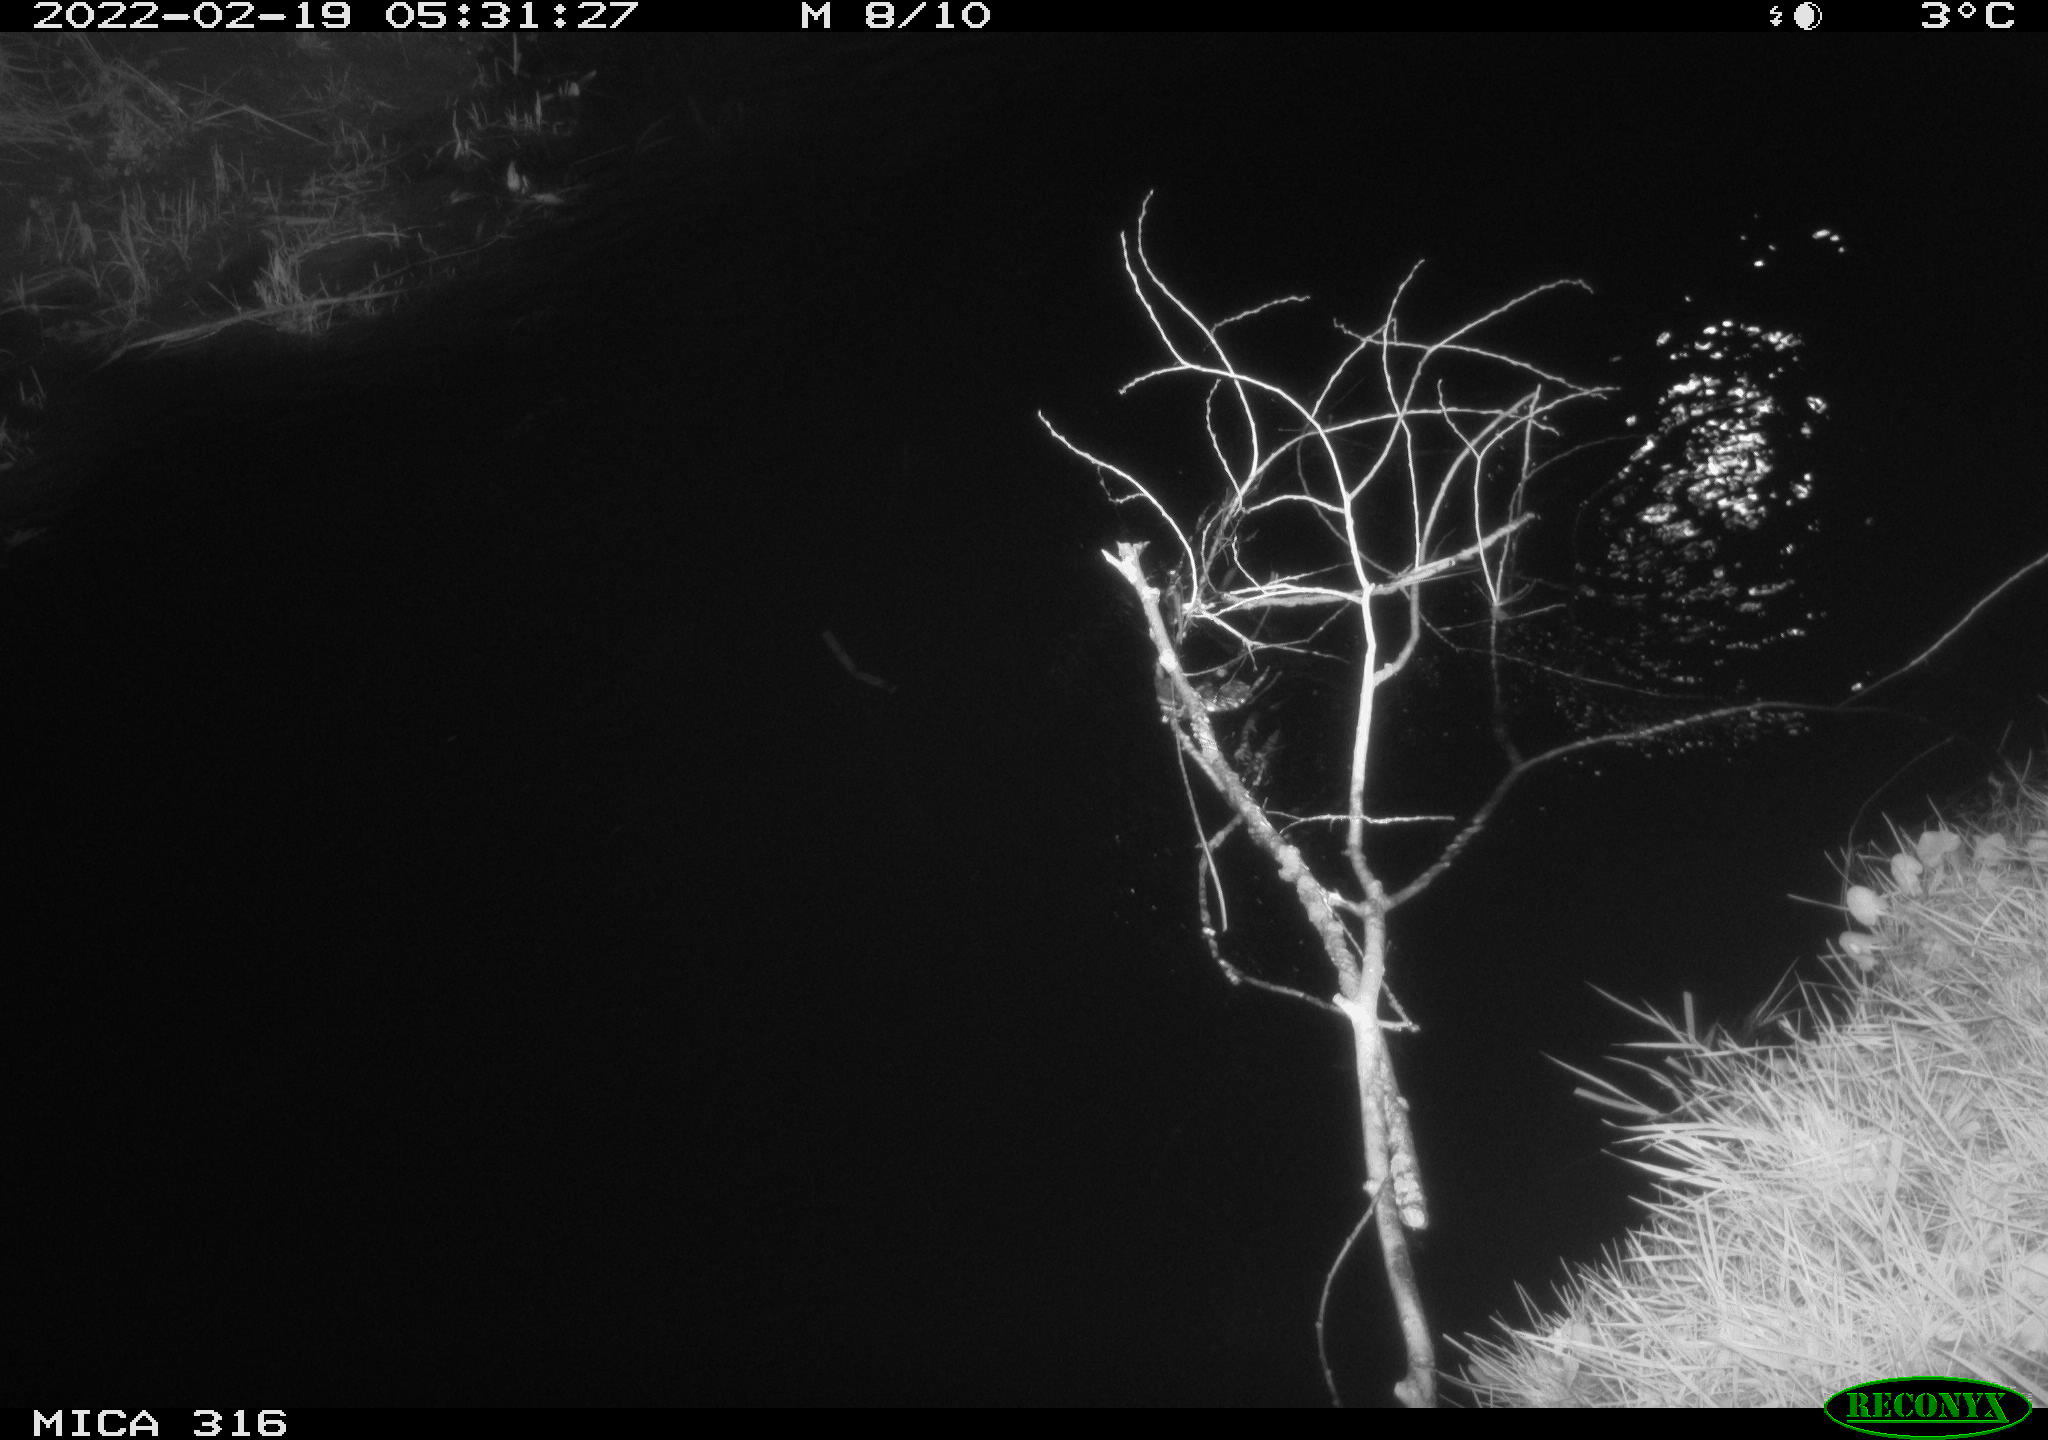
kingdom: Animalia
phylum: Chordata
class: Mammalia
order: Rodentia
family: Muridae
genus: Rattus
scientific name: Rattus norvegicus
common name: Brown rat
